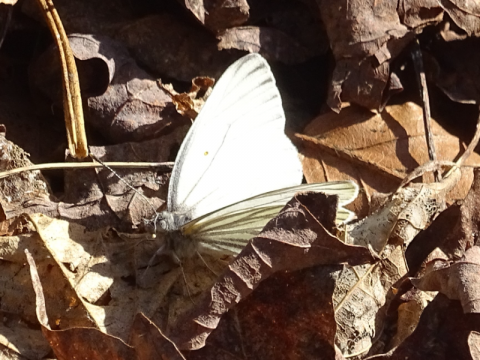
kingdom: Animalia
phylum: Arthropoda
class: Insecta
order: Lepidoptera
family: Pieridae
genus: Pieris
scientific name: Pieris oleracea
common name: Mustard White
